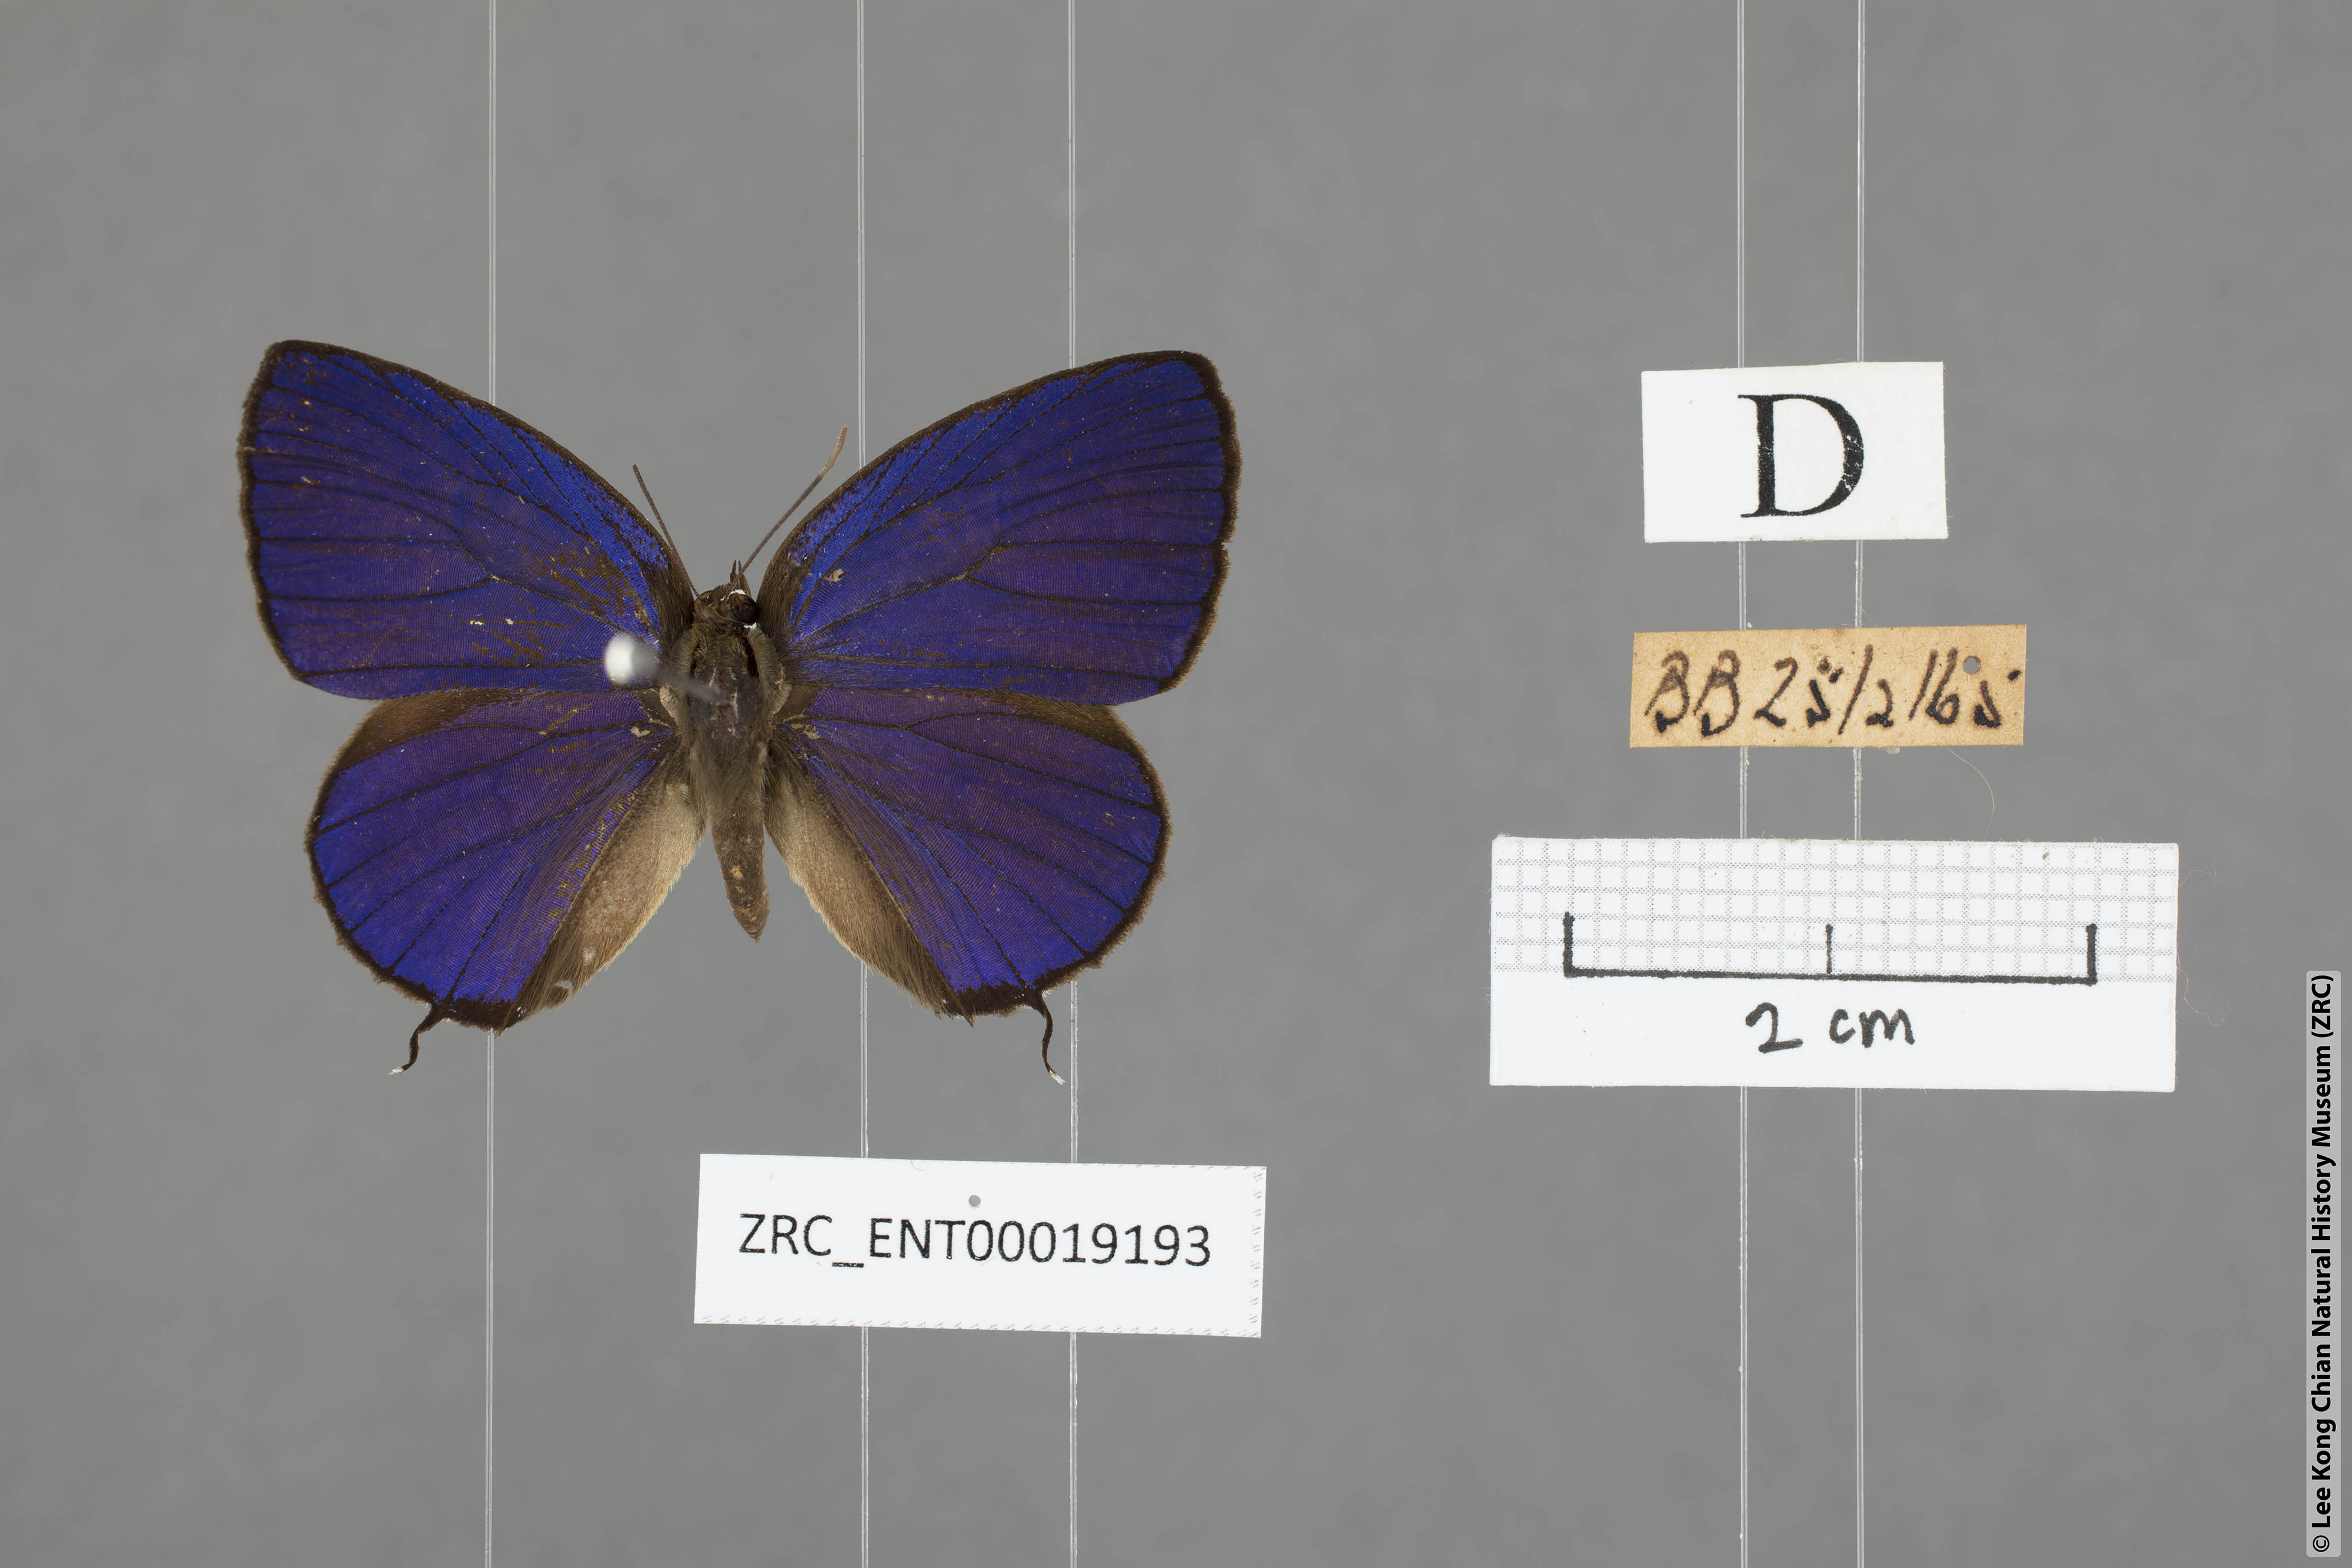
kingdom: Animalia
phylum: Arthropoda
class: Insecta
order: Lepidoptera
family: Lycaenidae
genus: Arhopala
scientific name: Arhopala aroa
